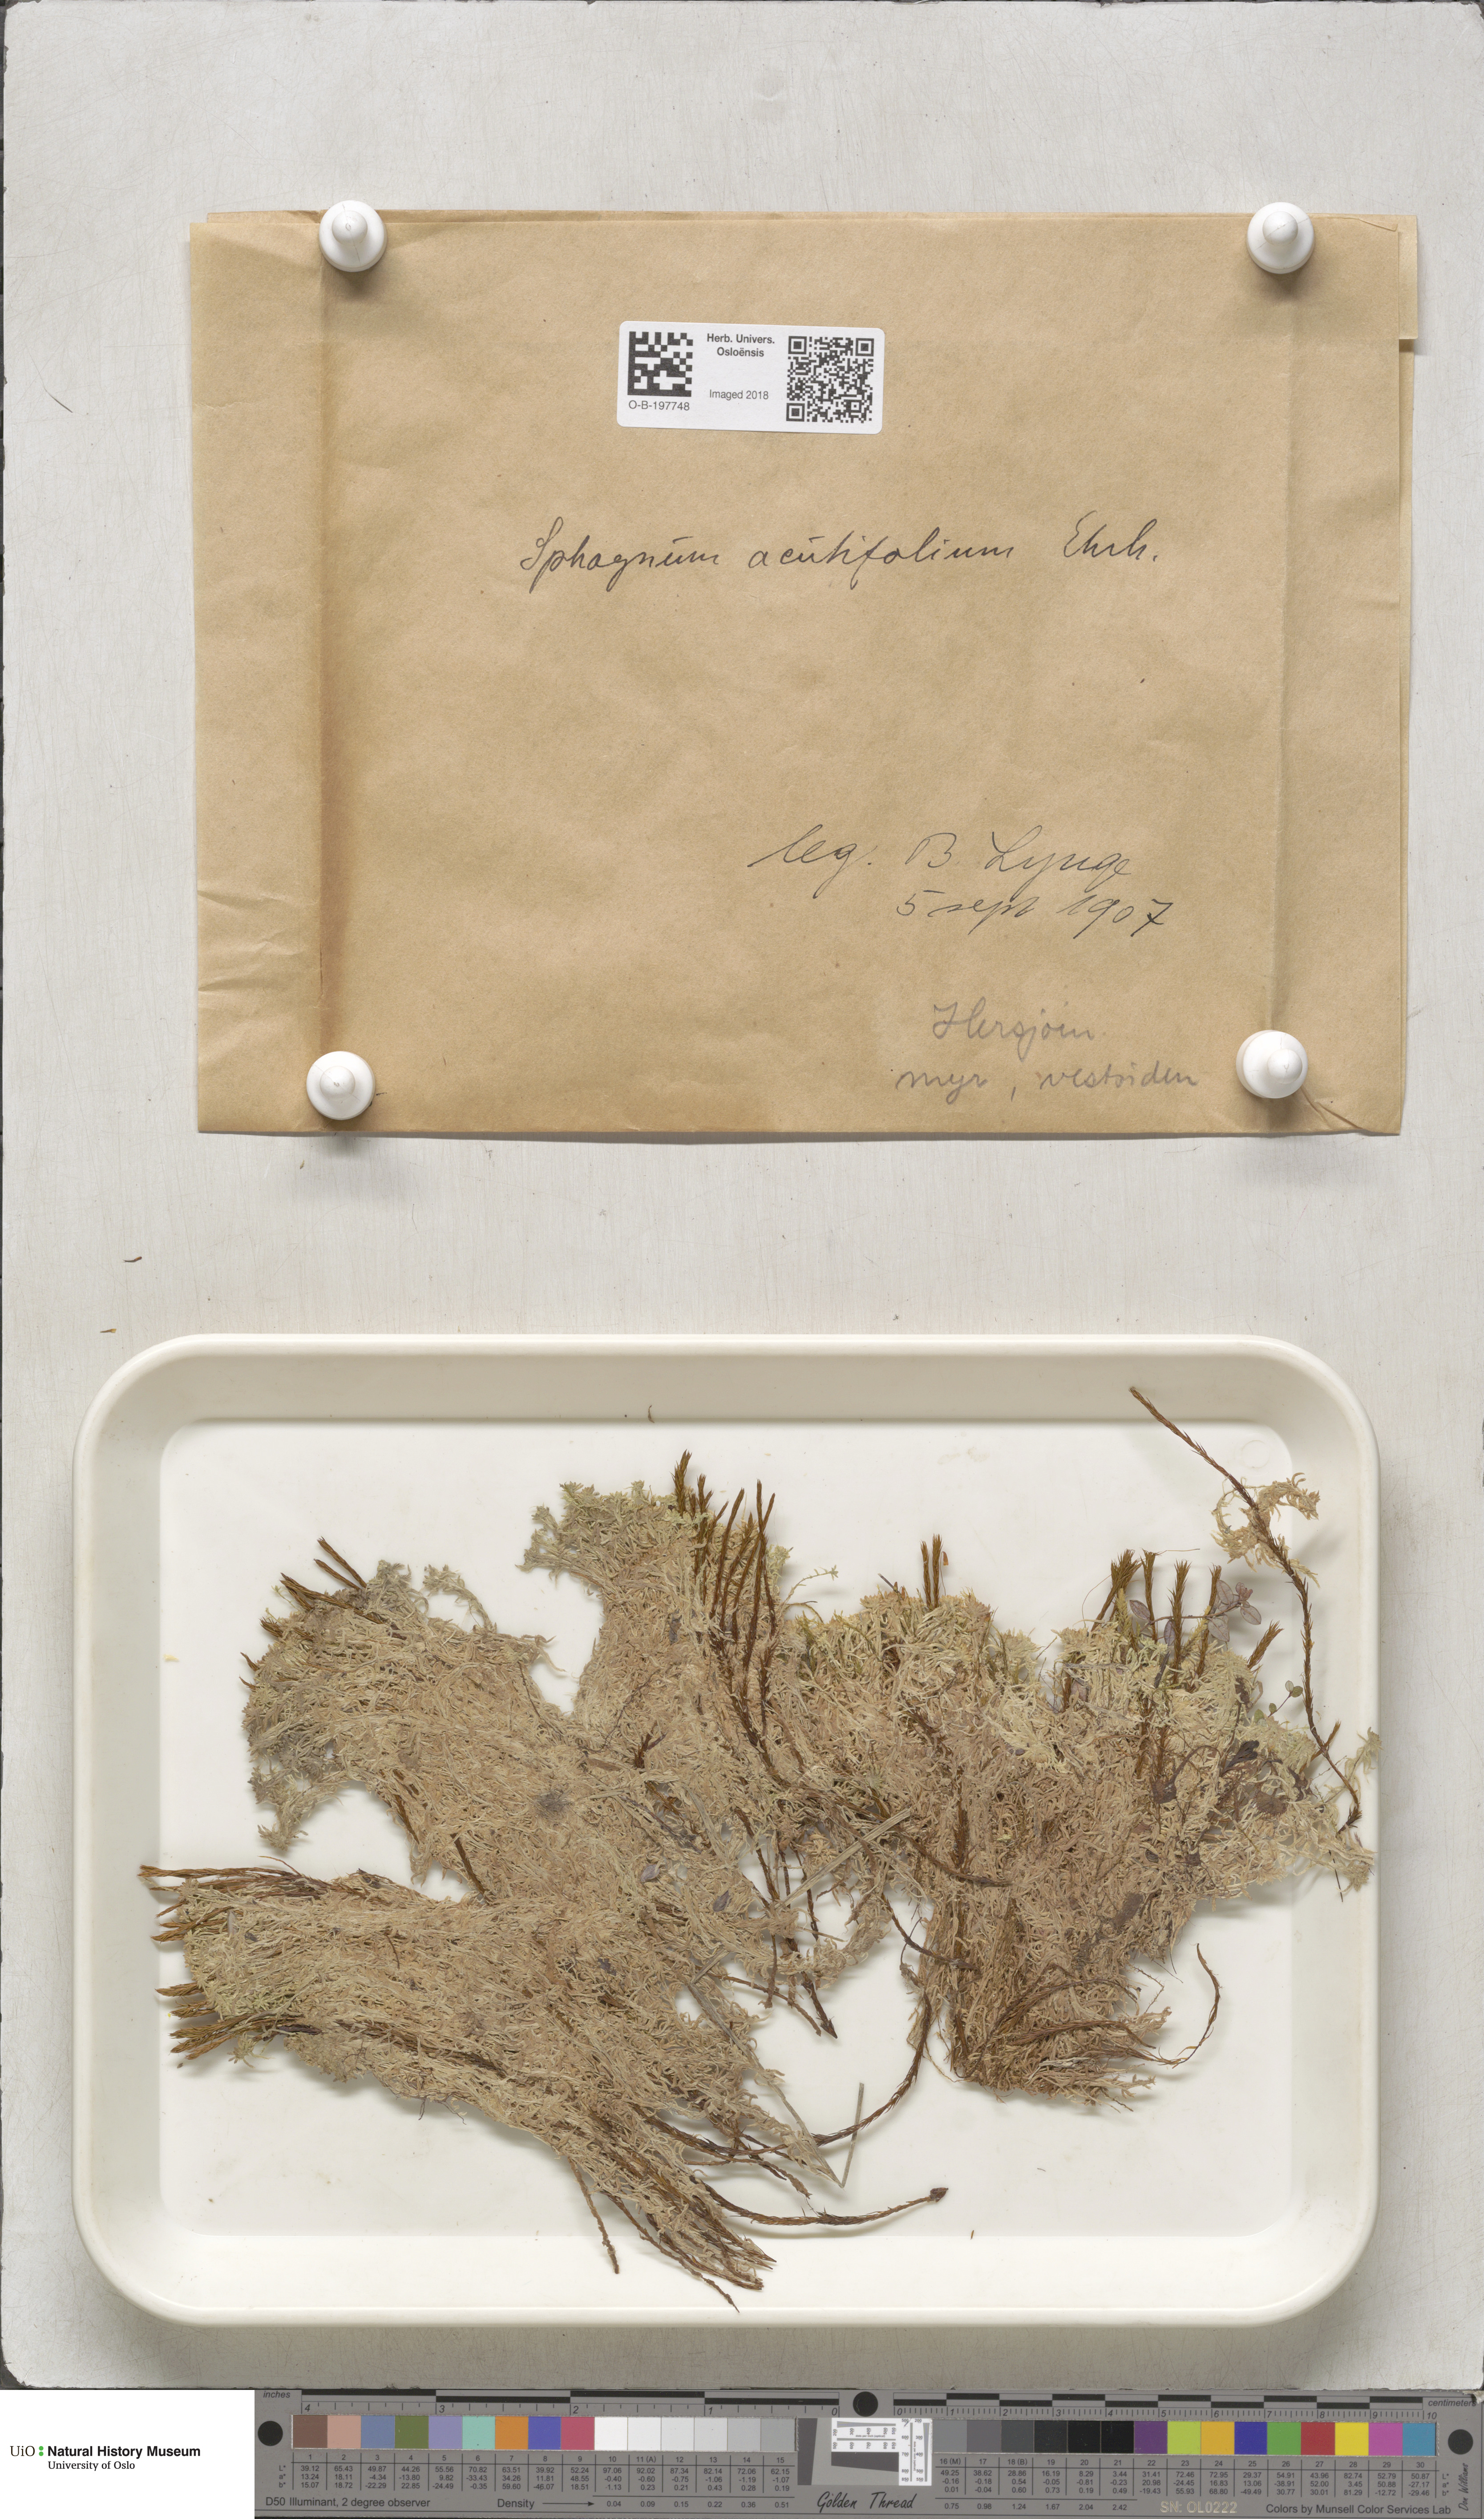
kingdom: Plantae
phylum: Bryophyta
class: Sphagnopsida
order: Sphagnales
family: Sphagnaceae
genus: Sphagnum
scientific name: Sphagnum capillifolium
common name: Small red peat moss
